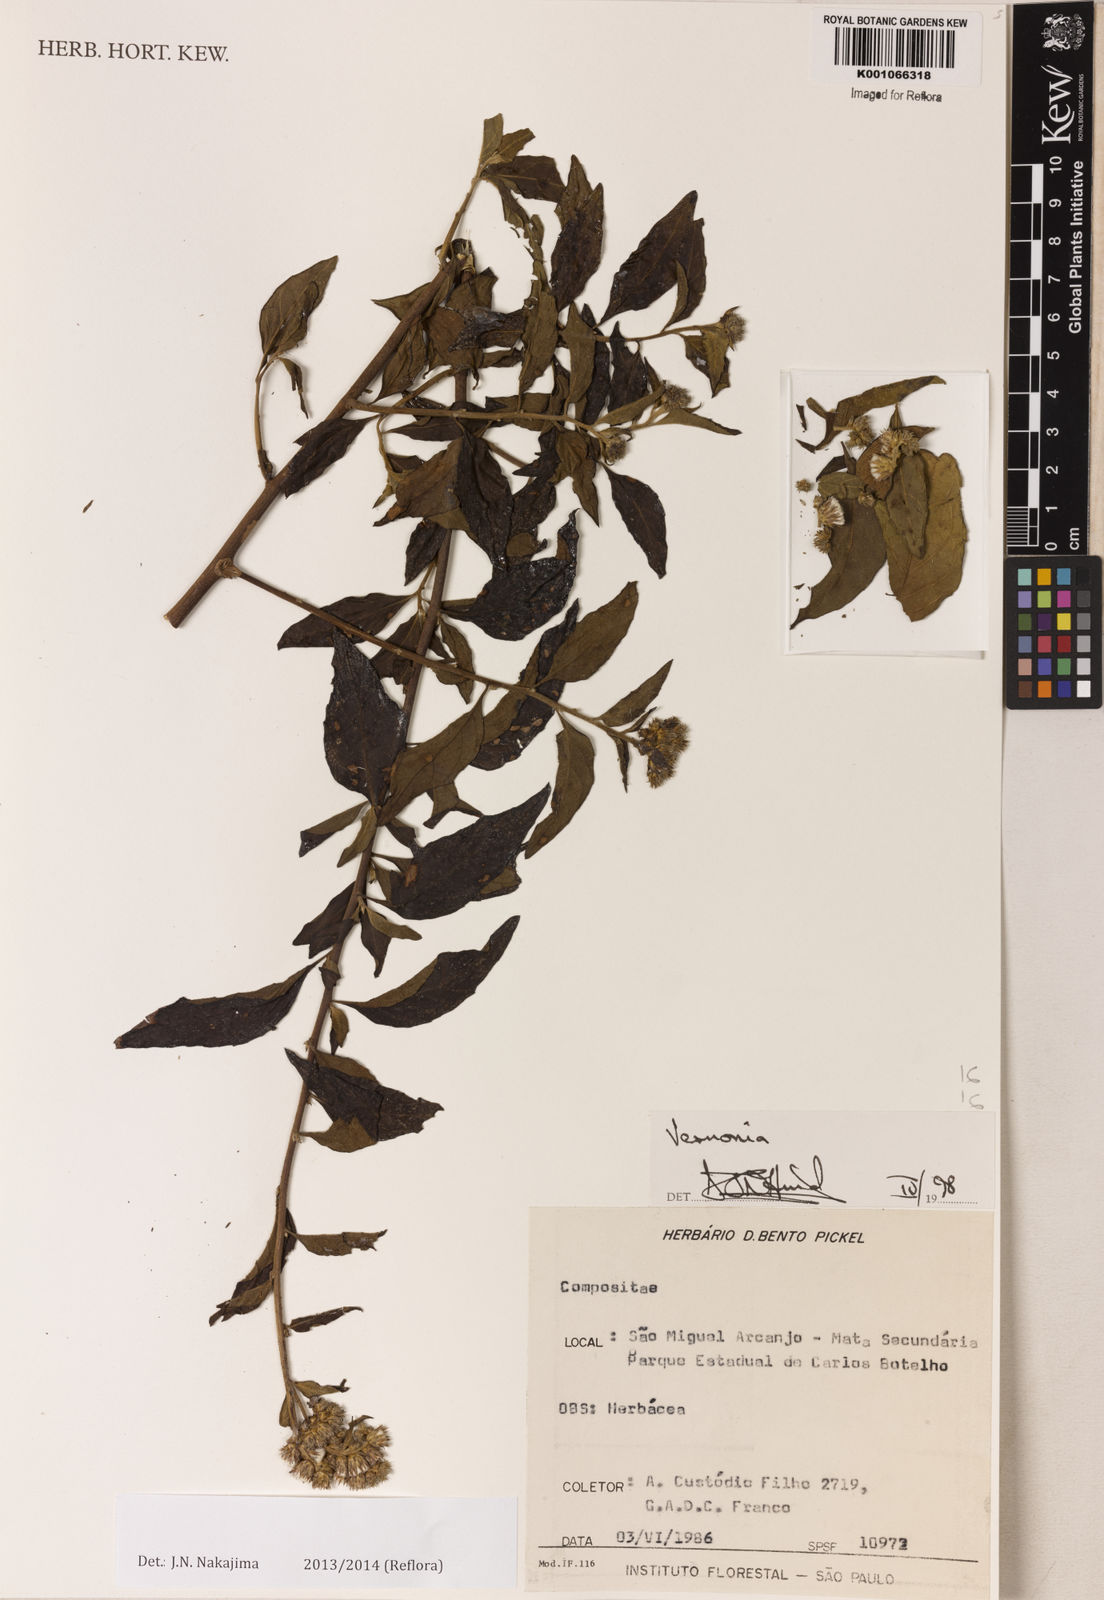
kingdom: Plantae
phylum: Tracheophyta
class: Magnoliopsida
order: Asterales
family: Asteraceae
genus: Cyrtocymura
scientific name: Cyrtocymura scorpioides
